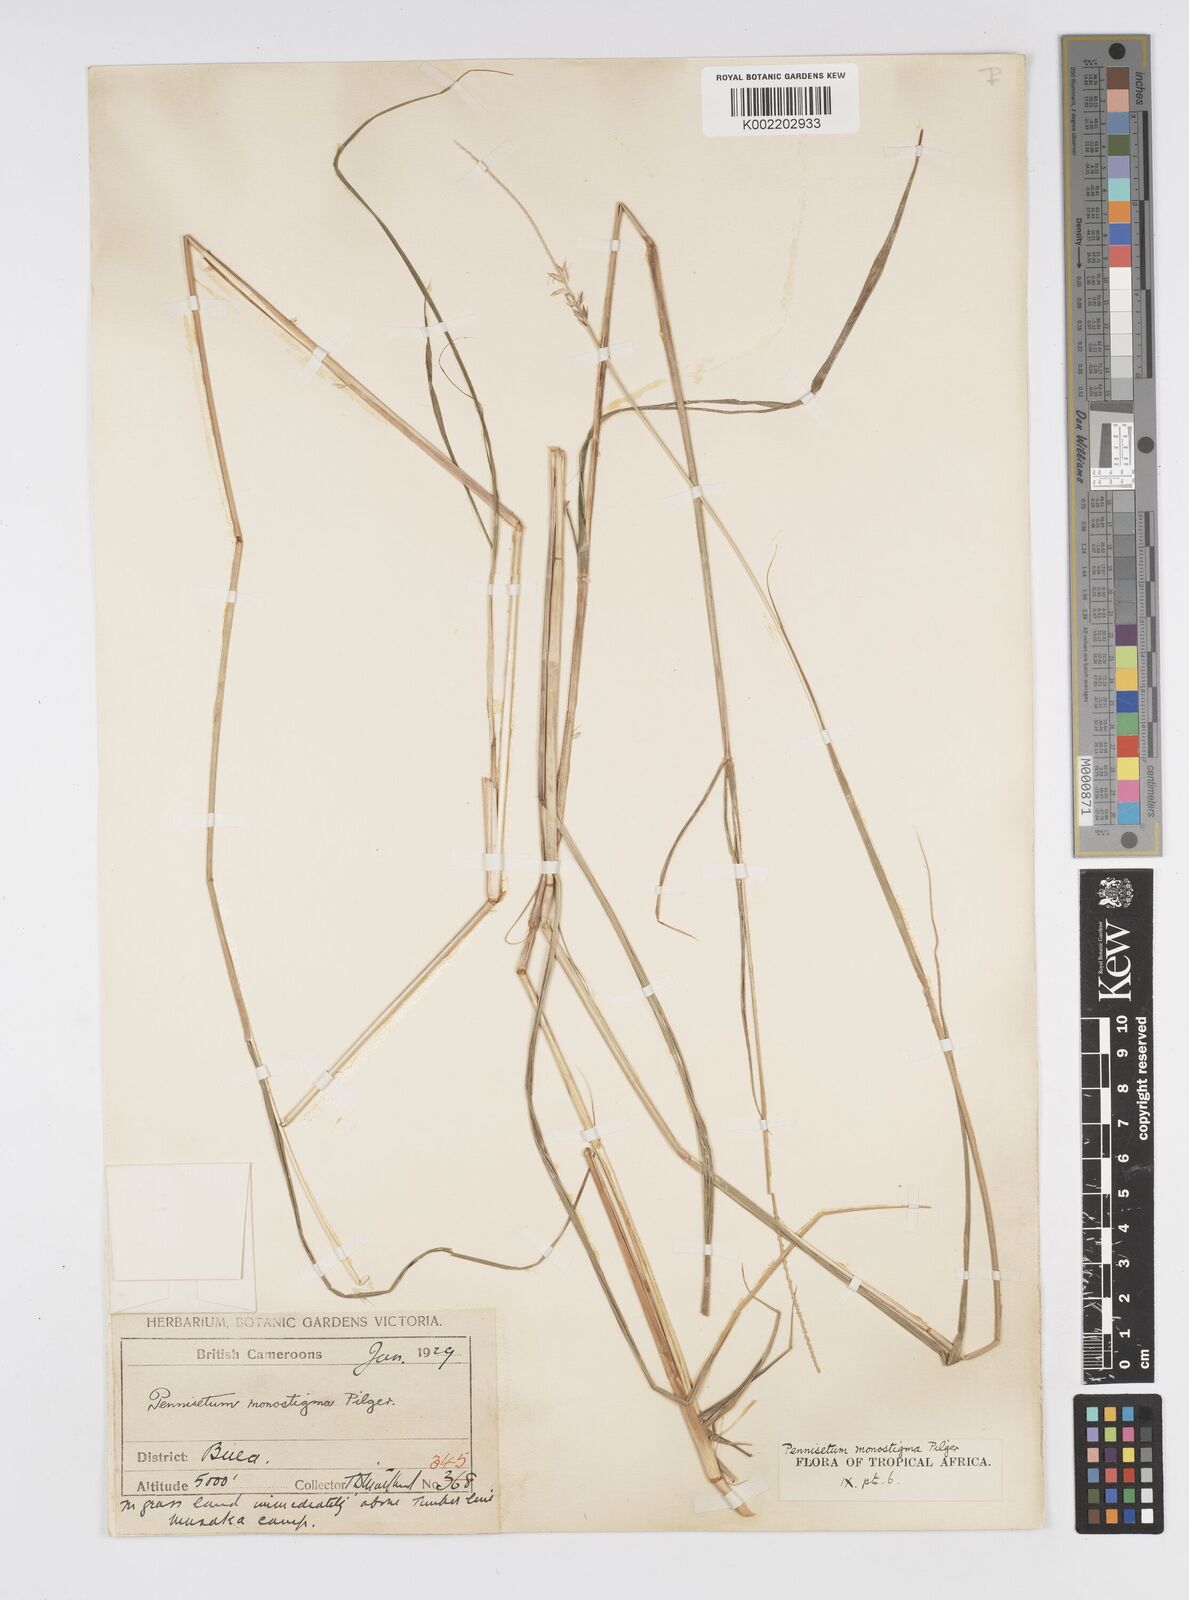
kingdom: Plantae
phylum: Tracheophyta
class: Liliopsida
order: Poales
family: Poaceae
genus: Cenchrus
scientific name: Cenchrus monostigma
